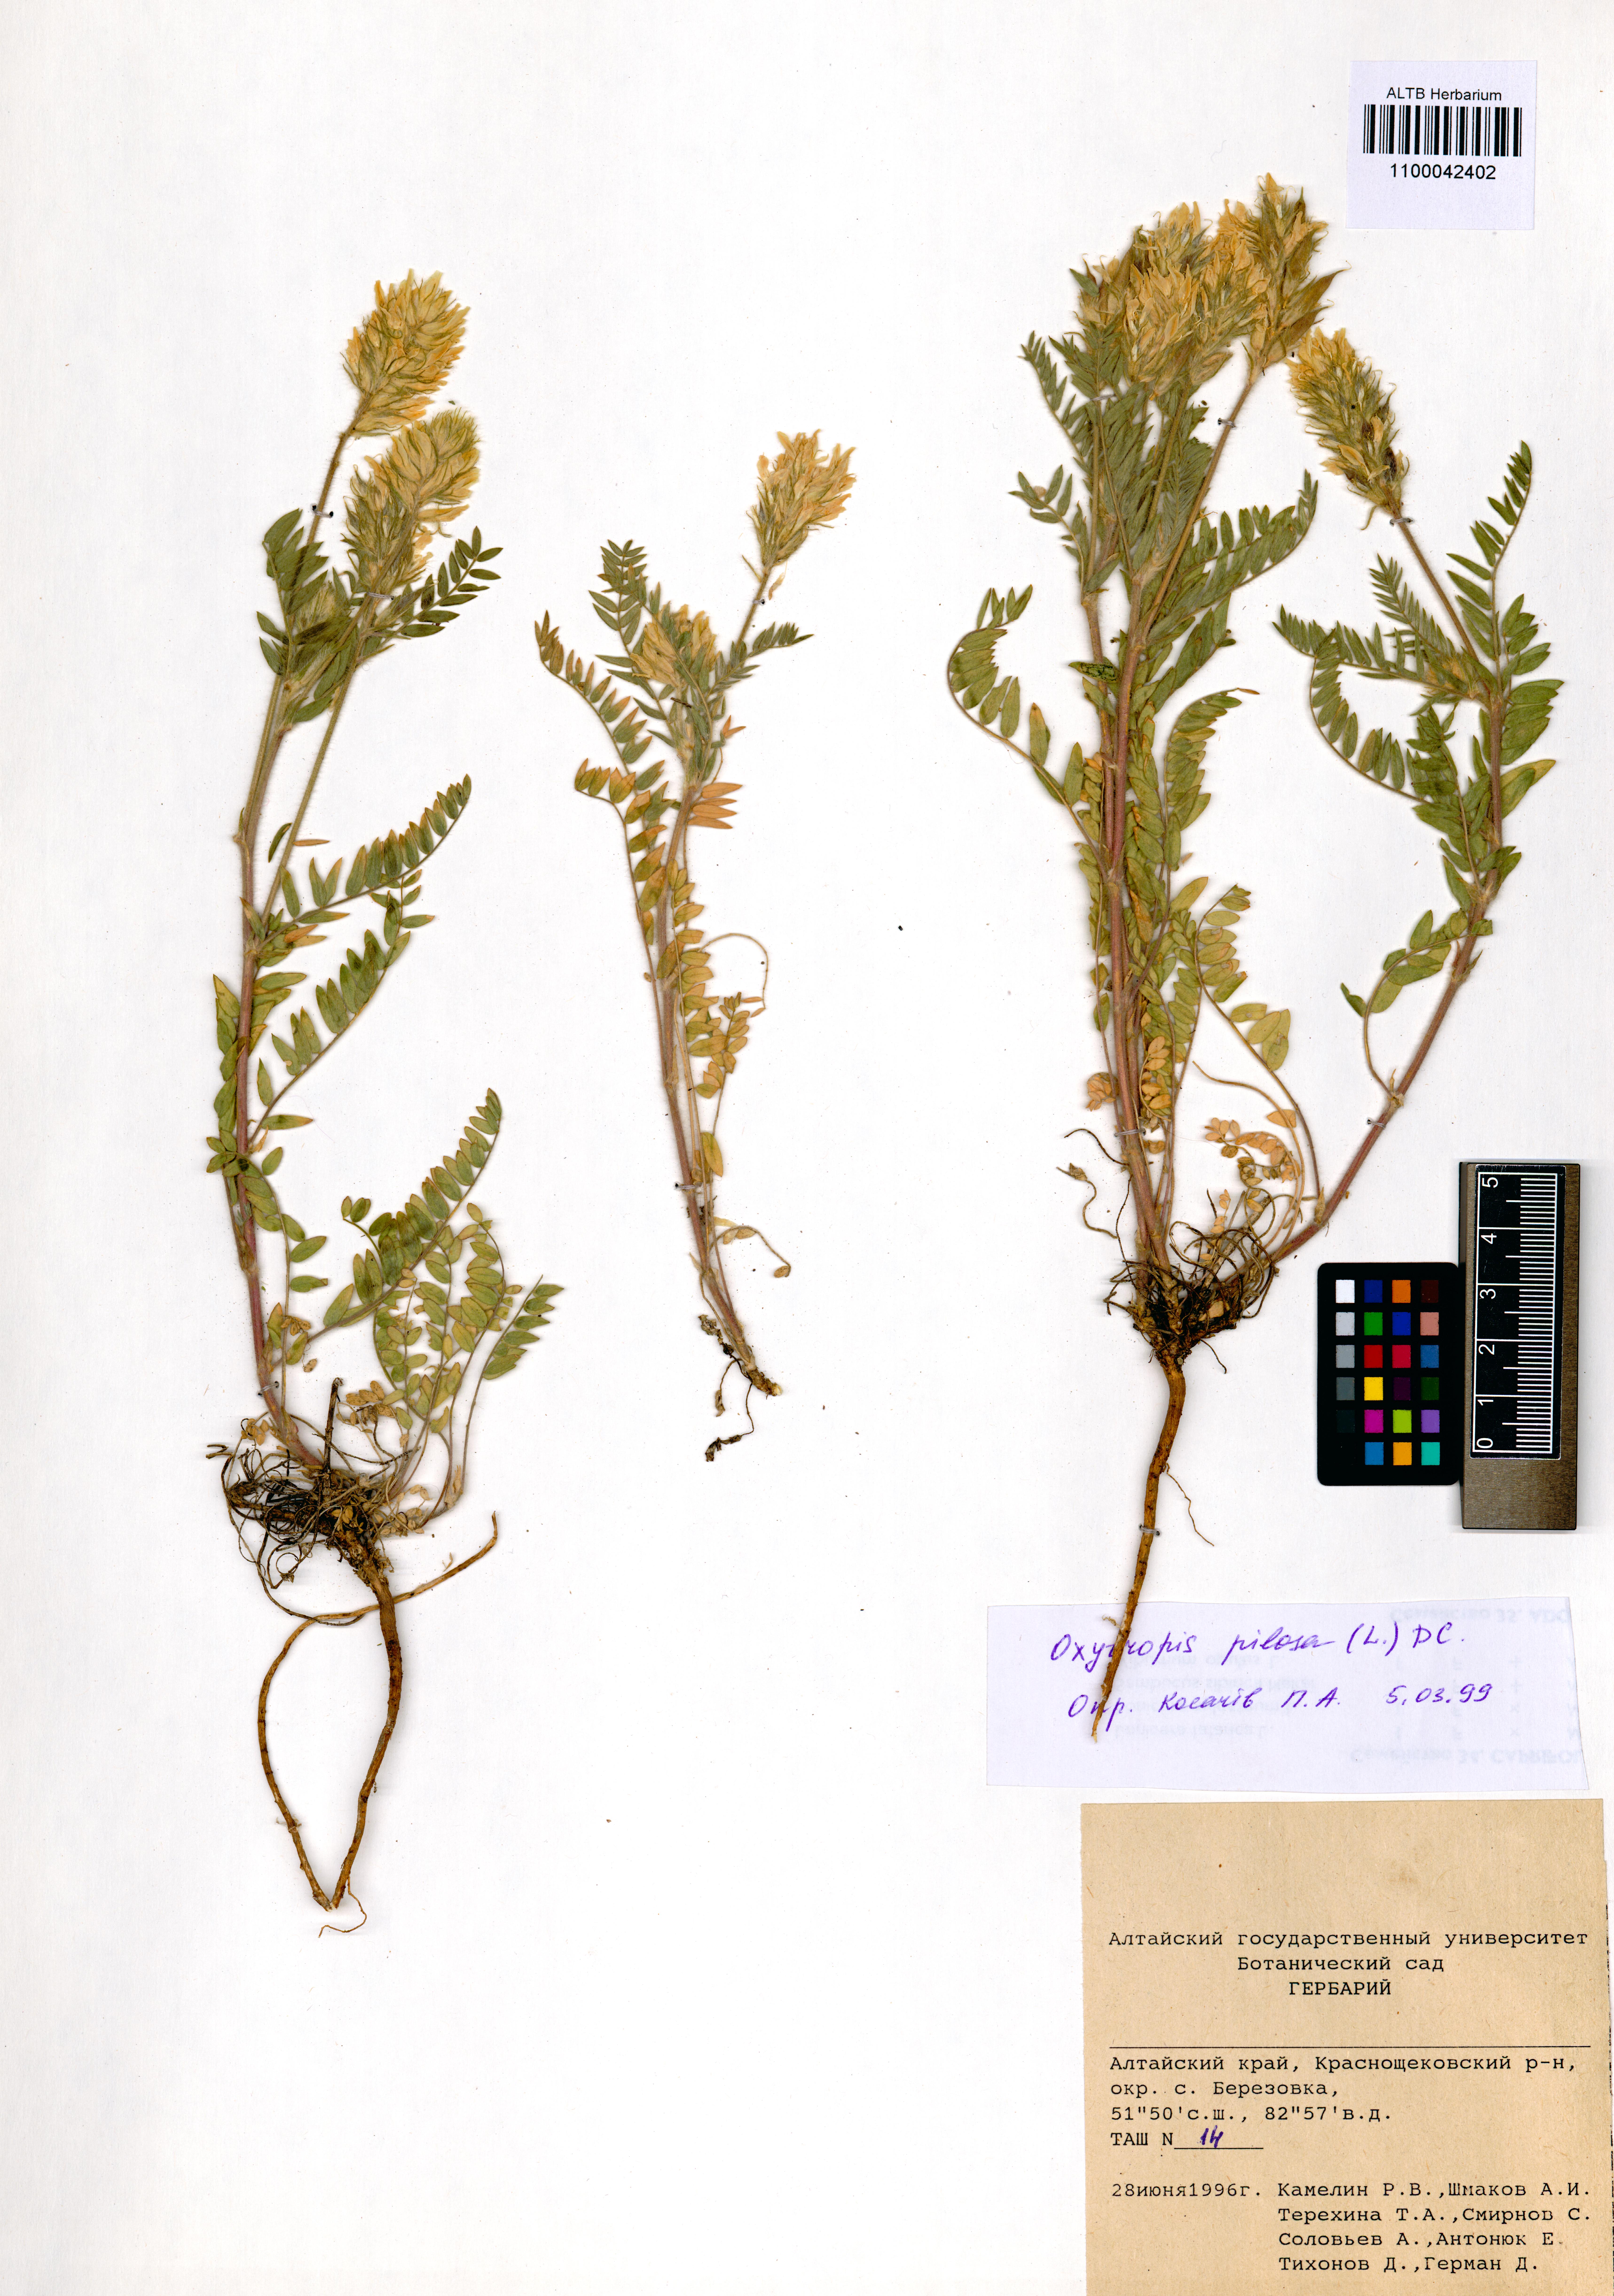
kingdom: Plantae
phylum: Tracheophyta
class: Magnoliopsida
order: Fabales
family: Fabaceae
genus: Oxytropis
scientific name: Oxytropis pilosa
